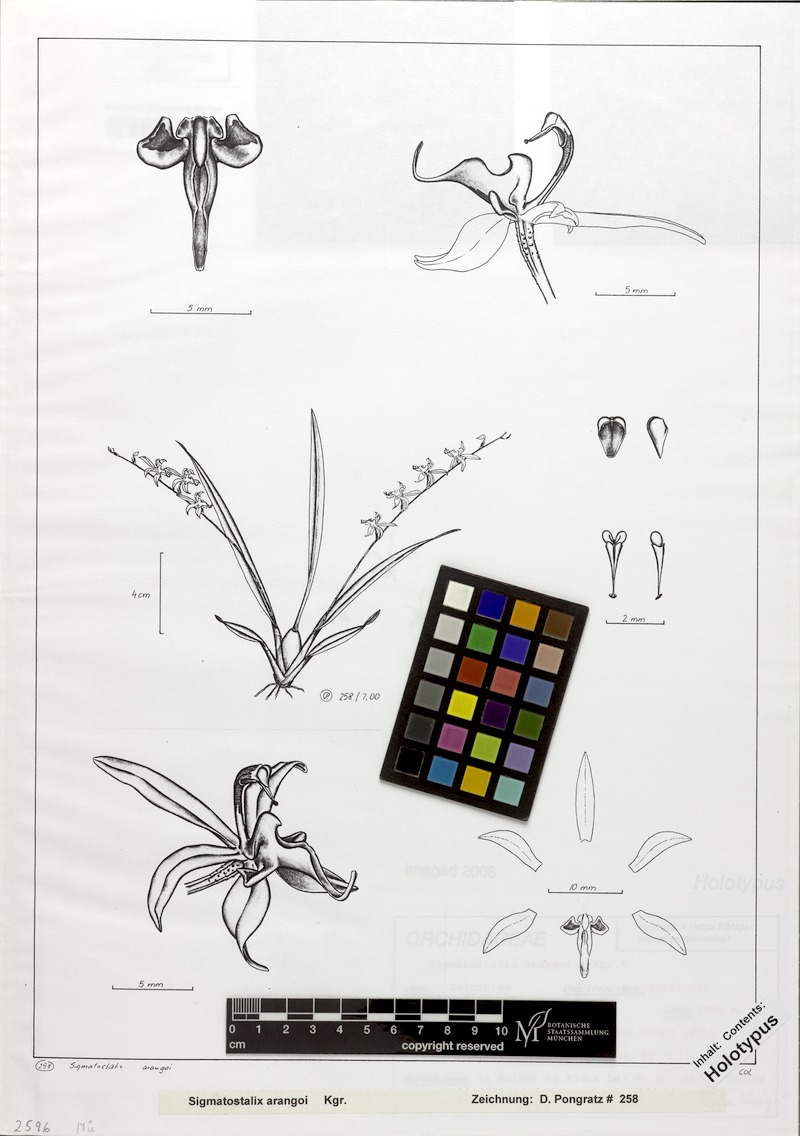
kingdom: Plantae
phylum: Tracheophyta
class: Liliopsida
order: Asparagales
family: Orchidaceae
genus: Oncidium
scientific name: Oncidium arangoi
